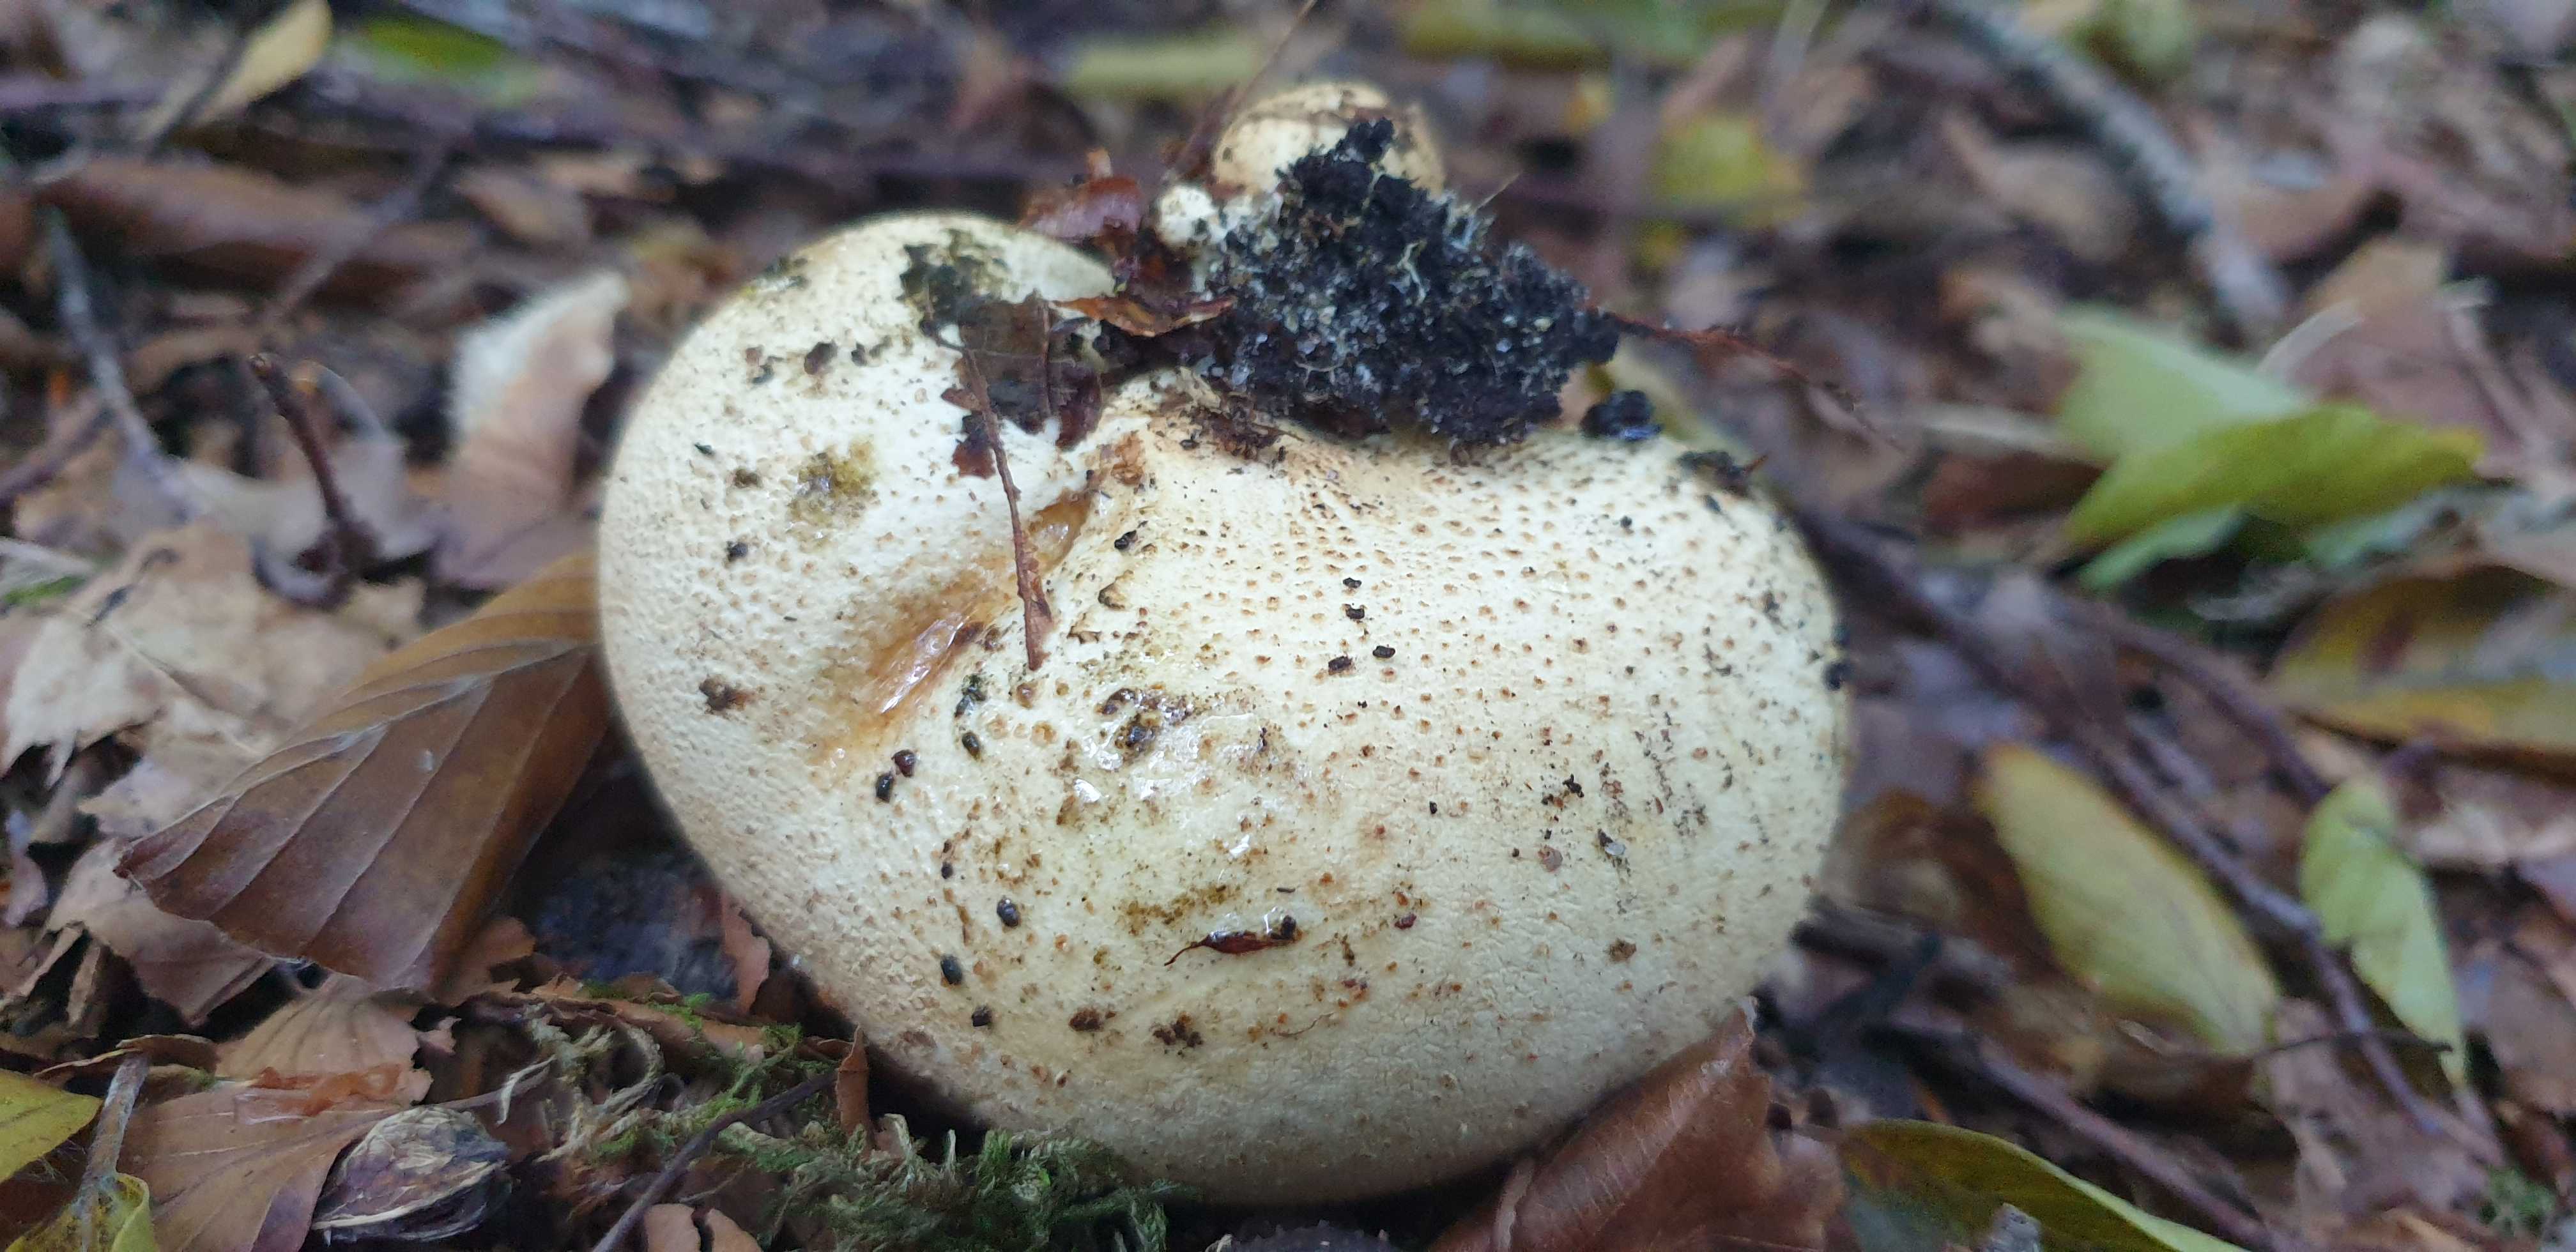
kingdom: Fungi
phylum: Basidiomycota
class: Agaricomycetes
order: Boletales
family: Sclerodermataceae
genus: Scleroderma
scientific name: Scleroderma citrinum
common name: almindelig bruskbold
